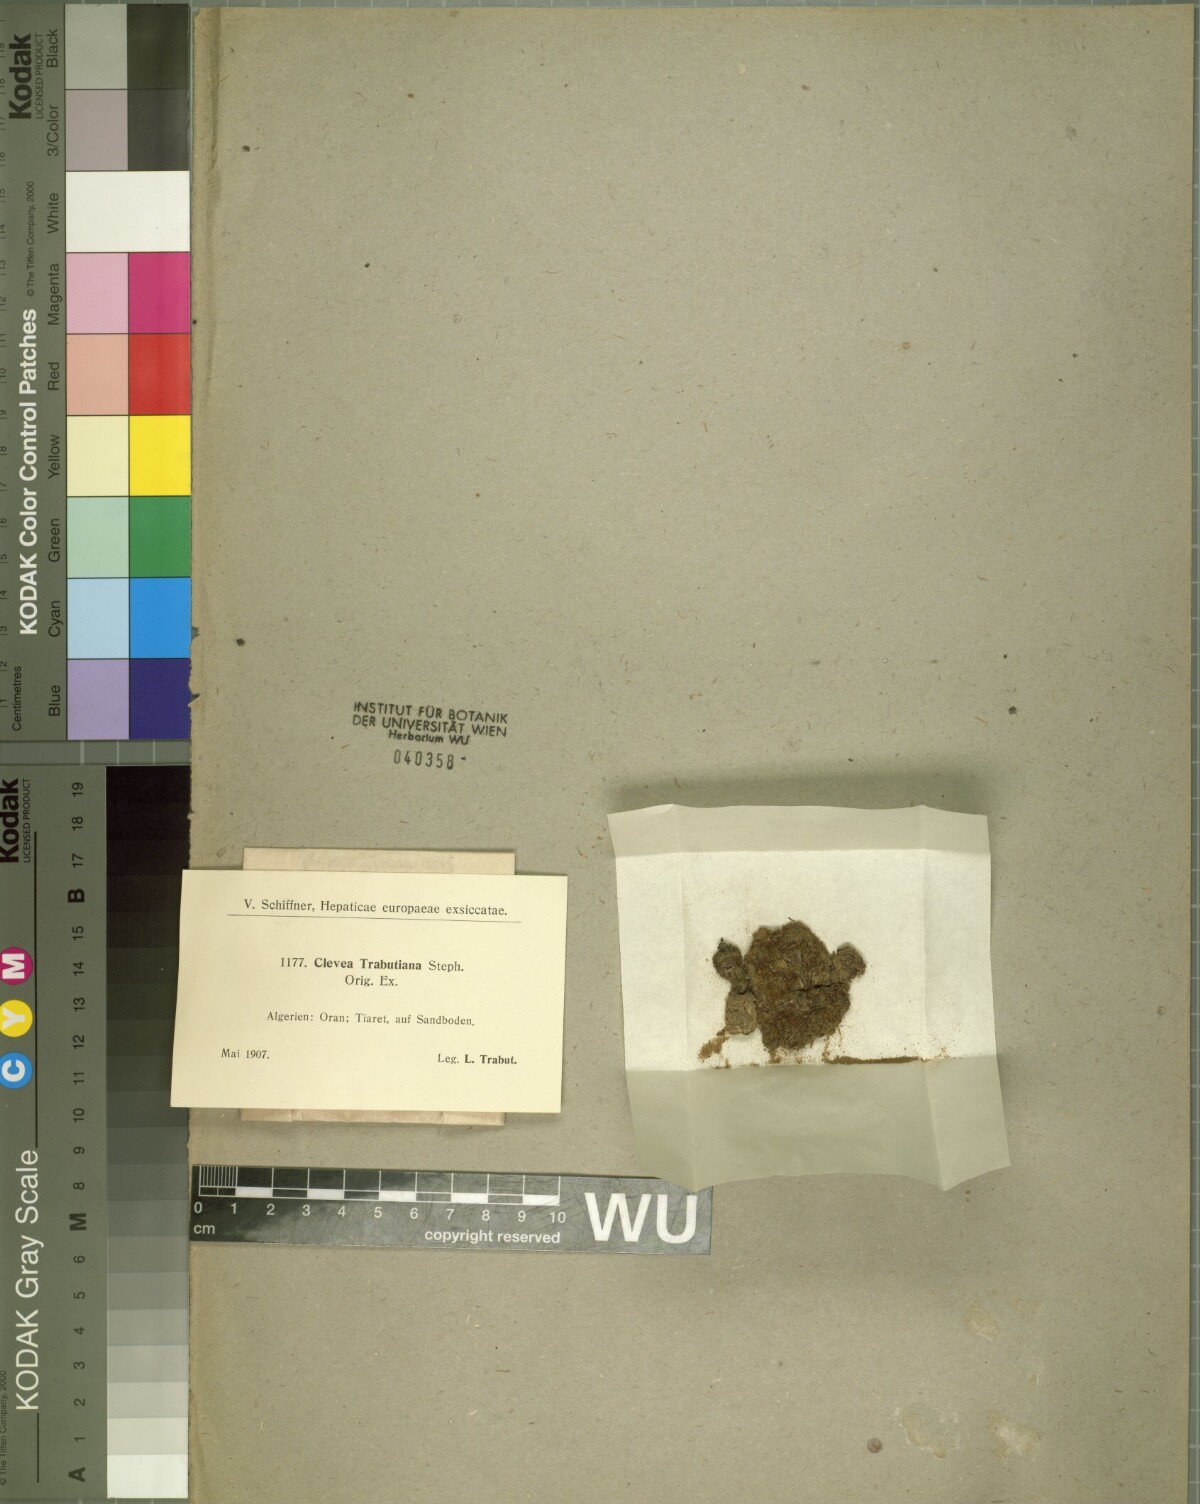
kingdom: Plantae
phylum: Marchantiophyta
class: Marchantiopsida
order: Marchantiales
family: Cleveaceae
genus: Clevea
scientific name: Clevea hyalina
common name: Hyaline liverwort
